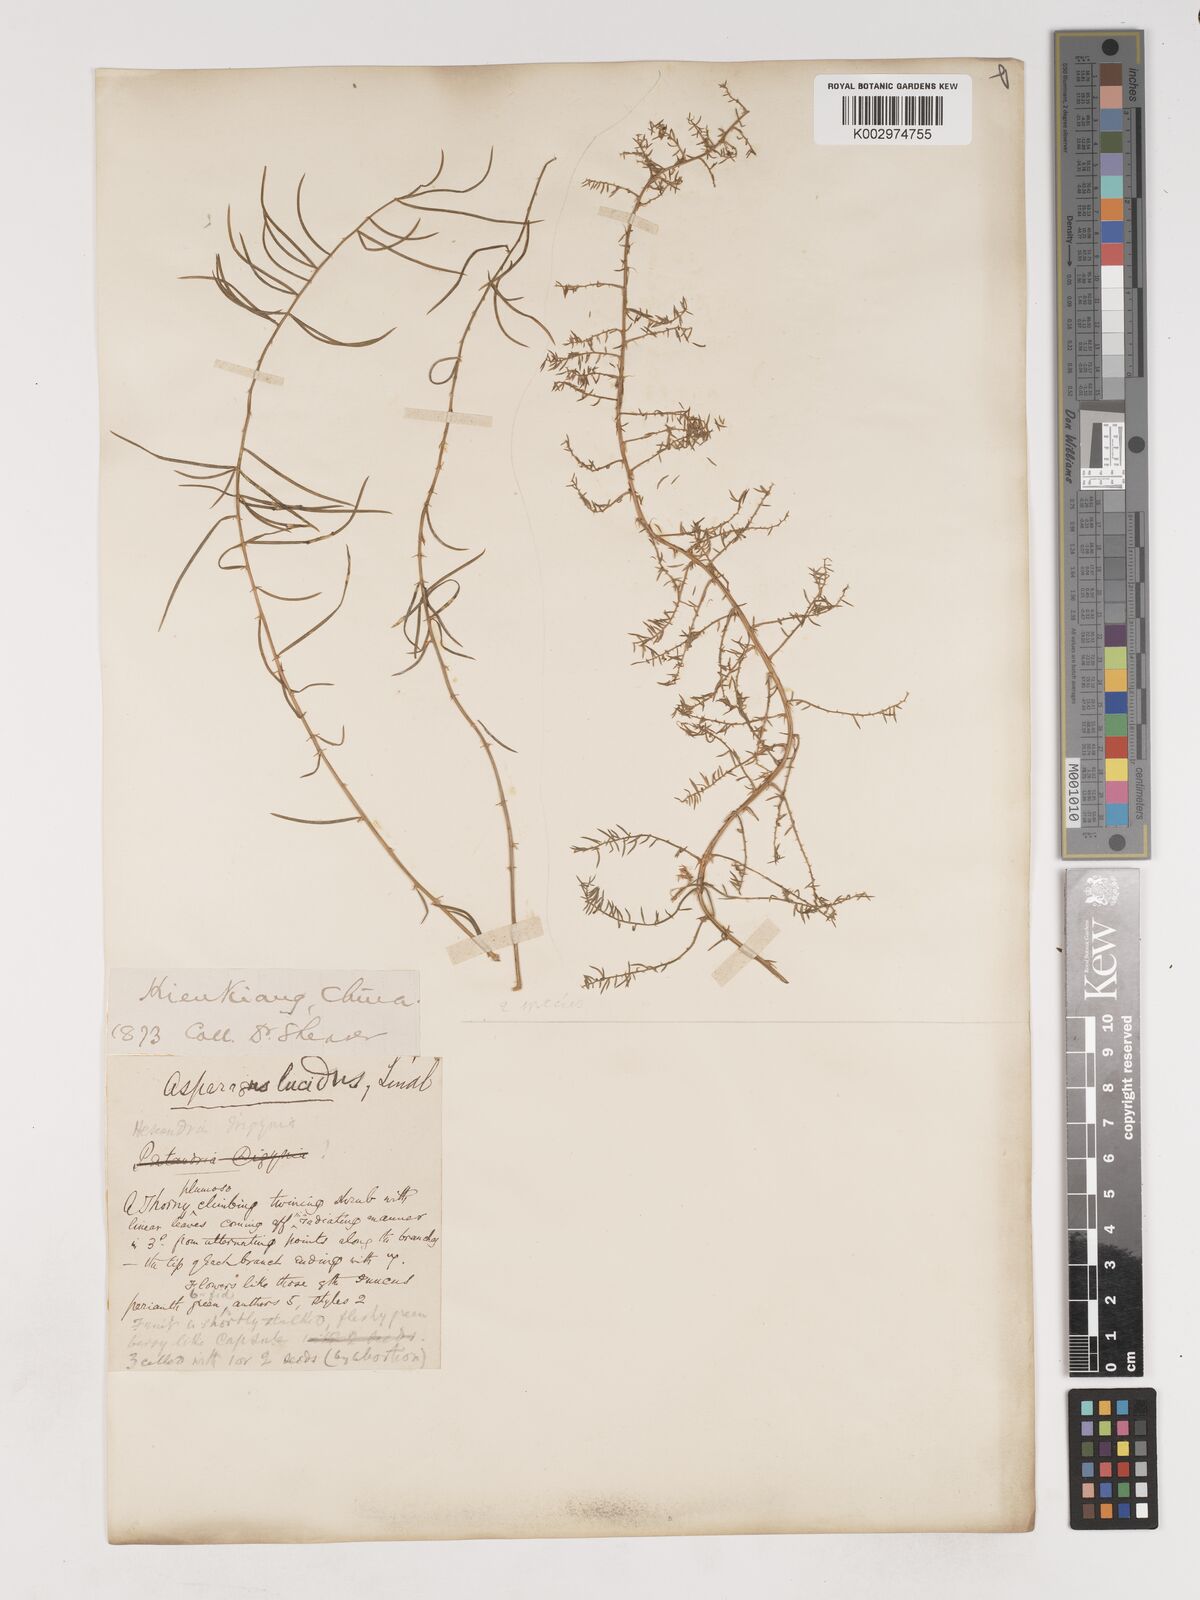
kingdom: Plantae
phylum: Tracheophyta
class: Liliopsida
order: Asparagales
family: Asparagaceae
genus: Asparagus
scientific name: Asparagus
